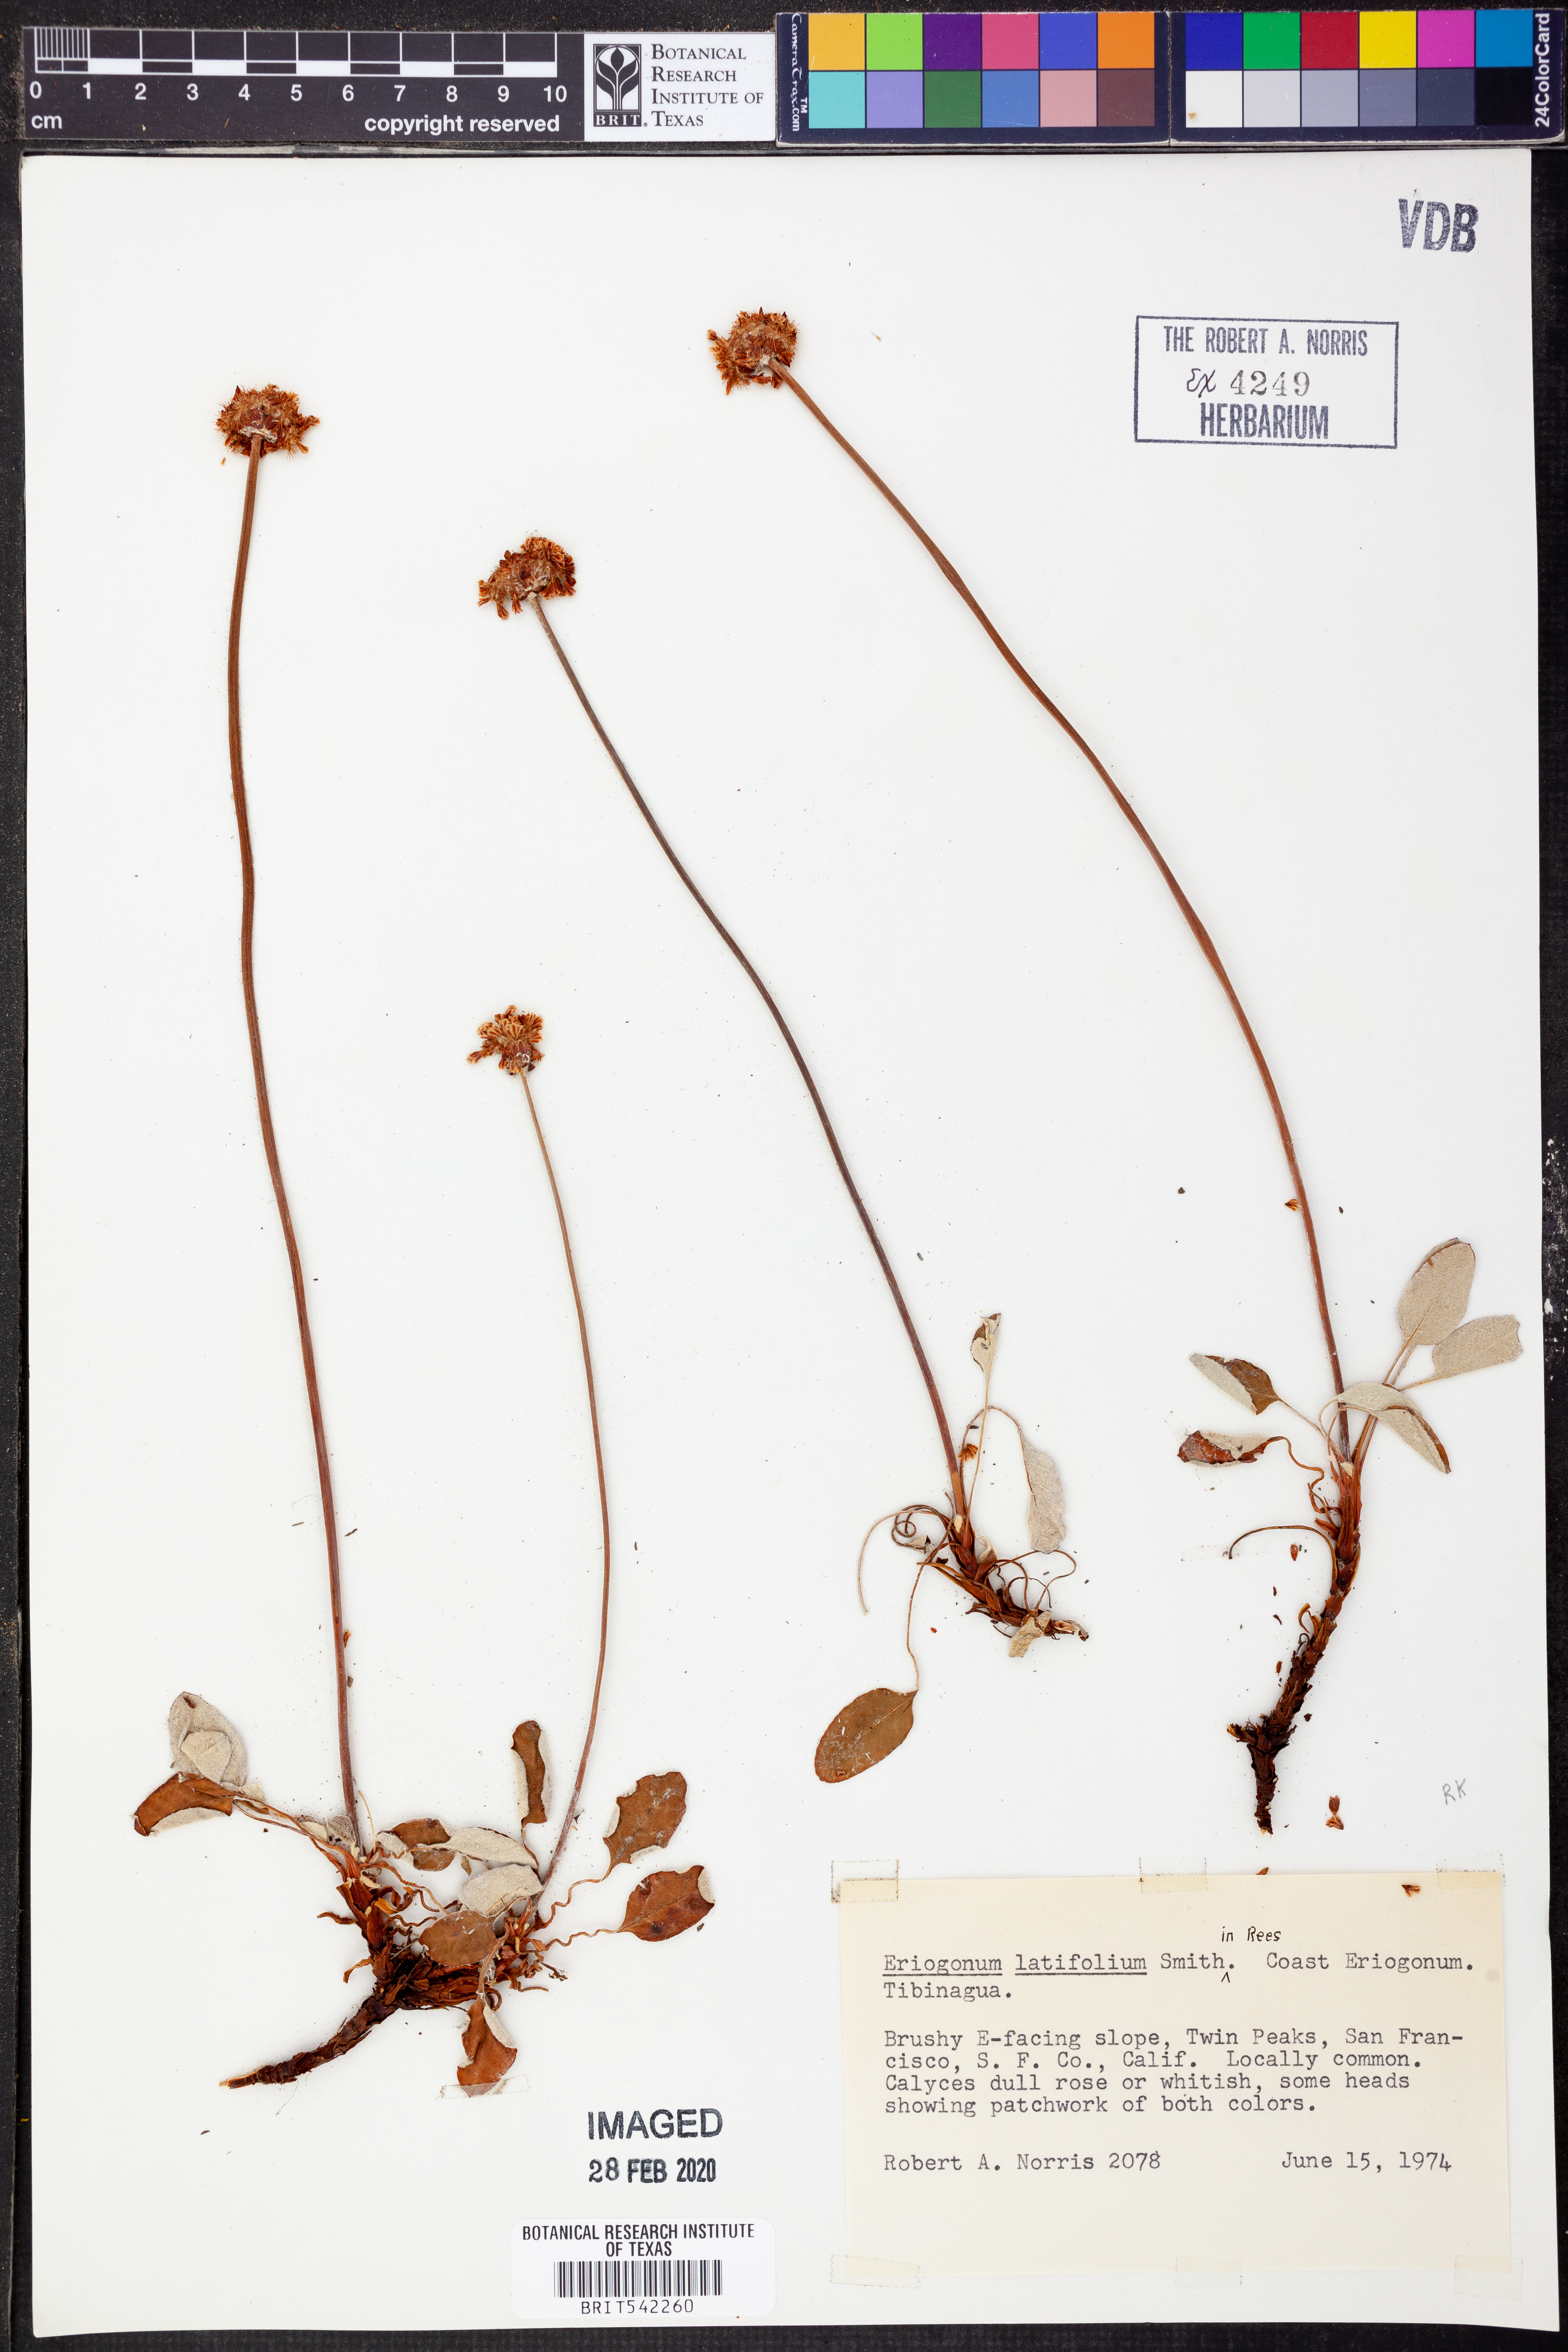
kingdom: Plantae
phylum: Tracheophyta
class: Magnoliopsida
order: Caryophyllales
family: Polygonaceae
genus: Eriogonum
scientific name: Eriogonum latifolium
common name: Seaside wild buckwheat
